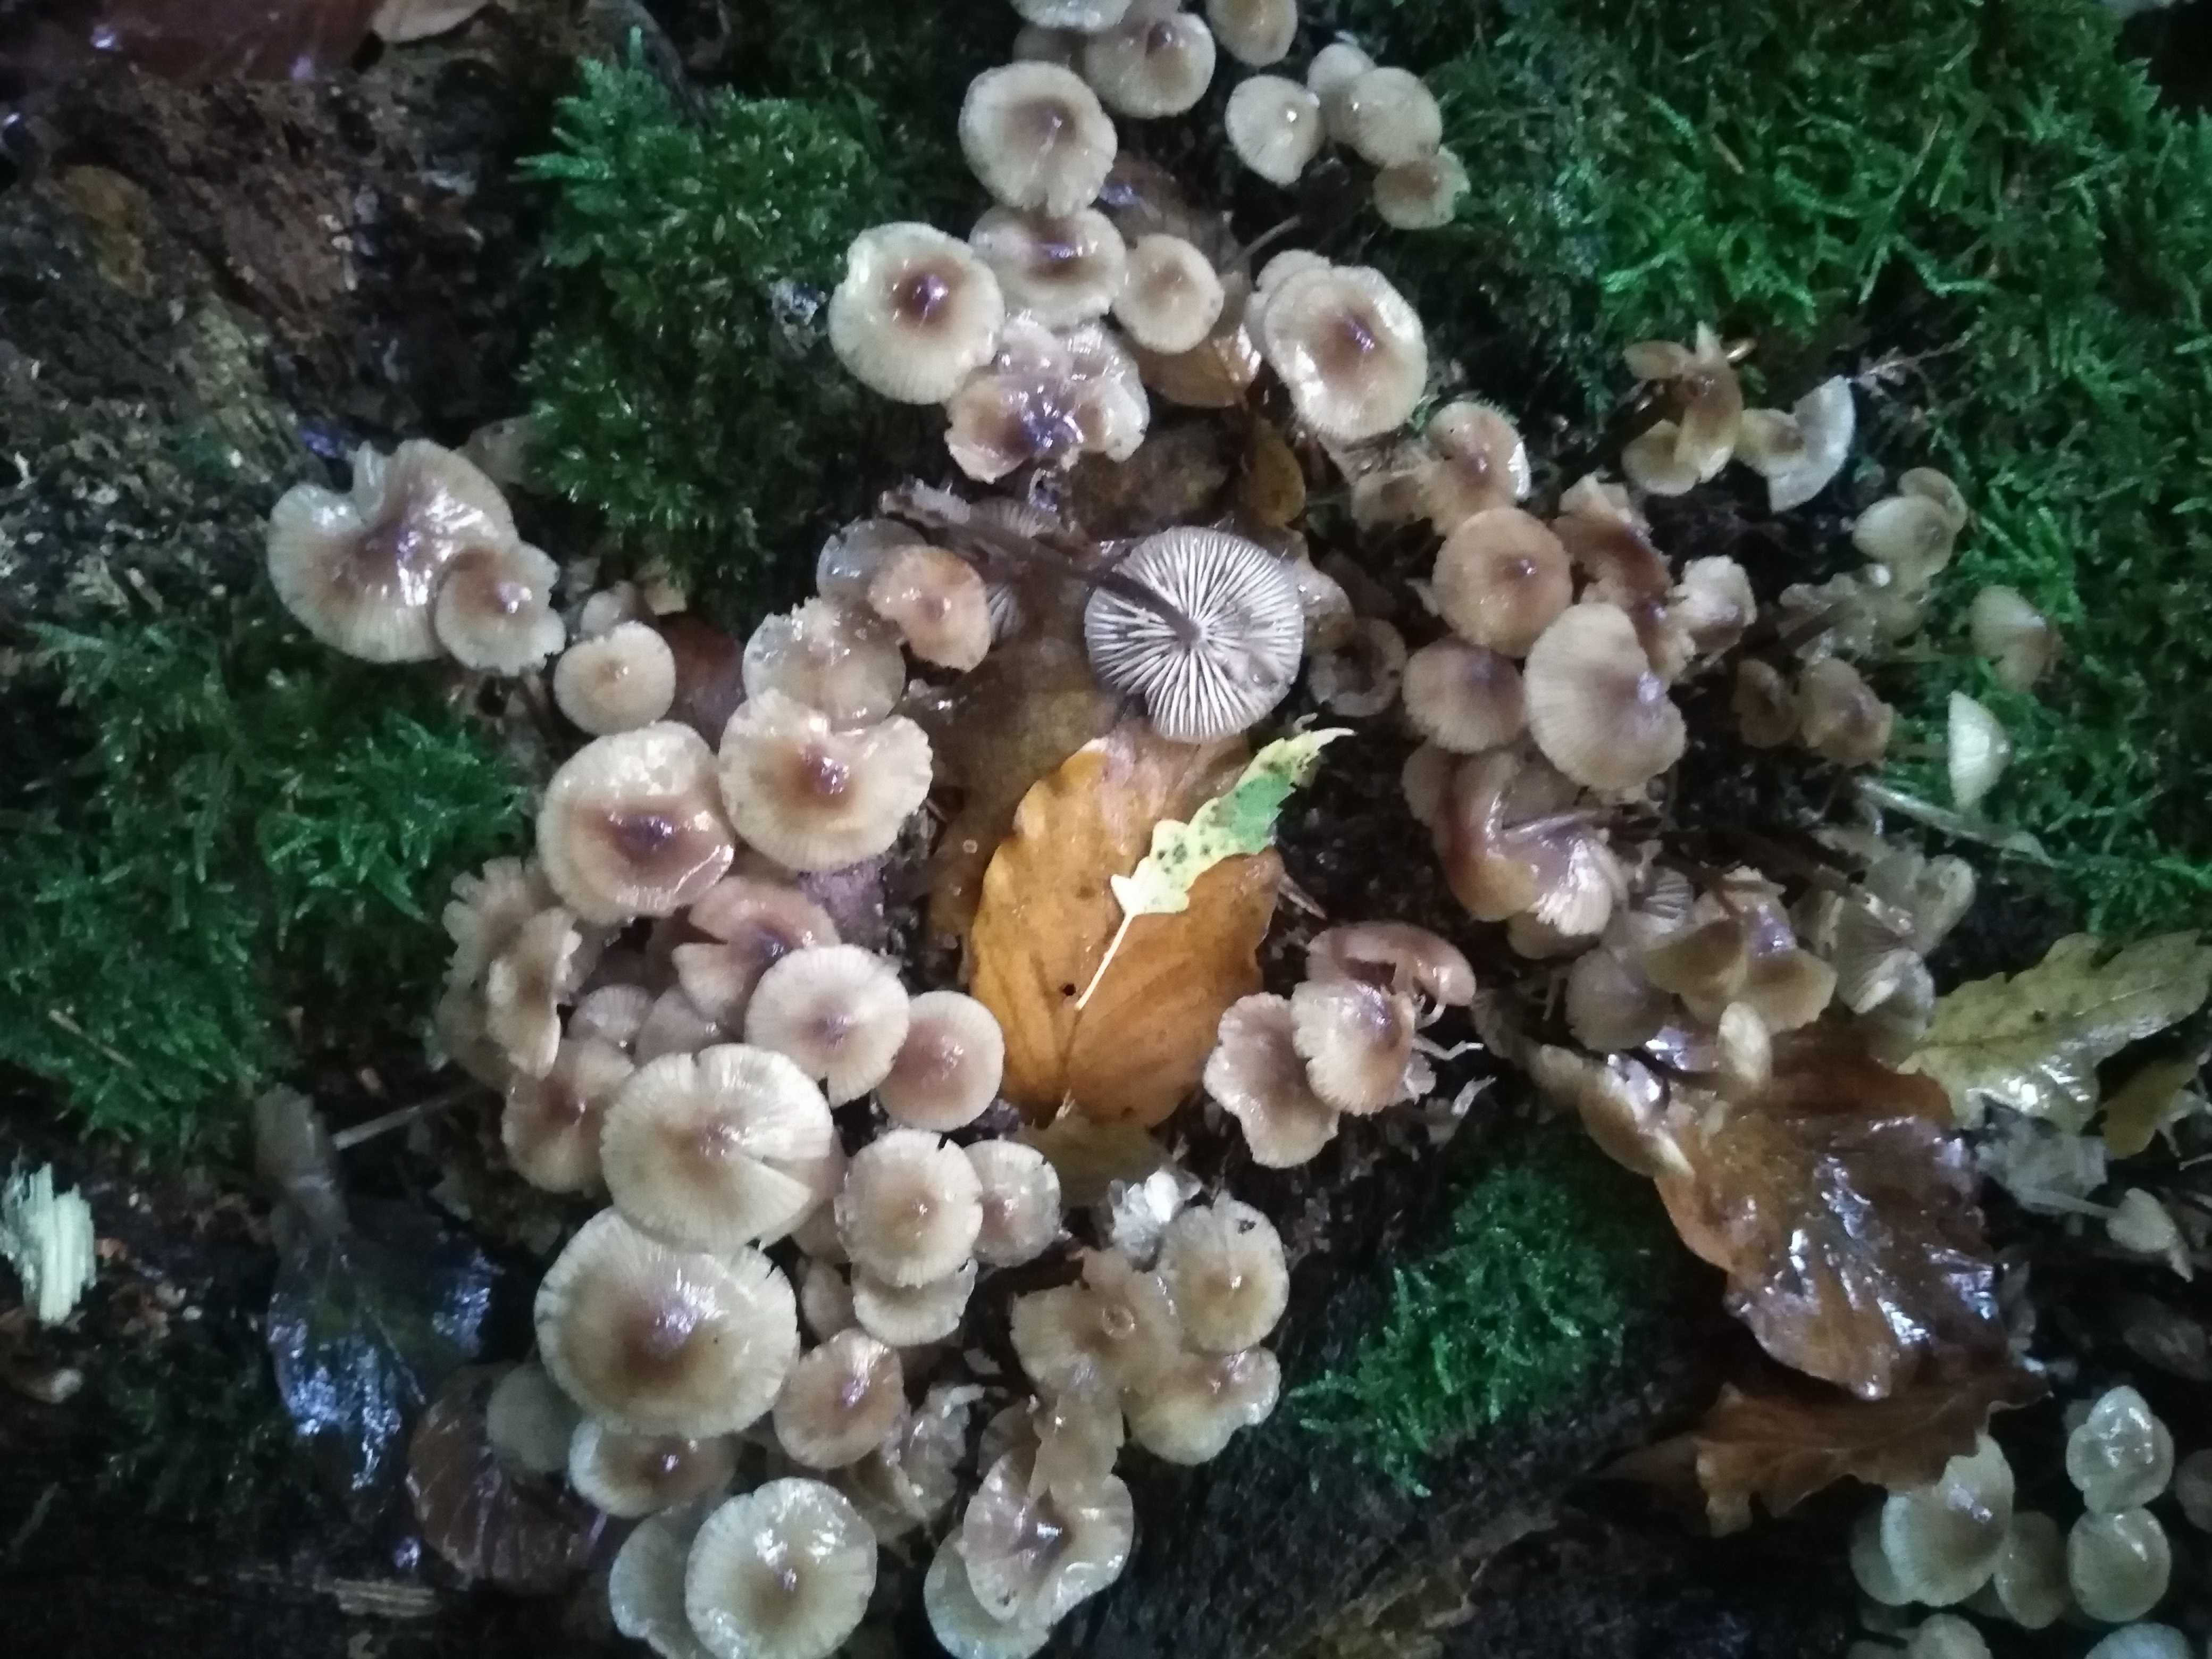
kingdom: Fungi
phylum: Basidiomycota
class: Agaricomycetes
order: Agaricales
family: Mycenaceae
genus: Mycena
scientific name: Mycena maculata
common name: rødplettet huesvamp
